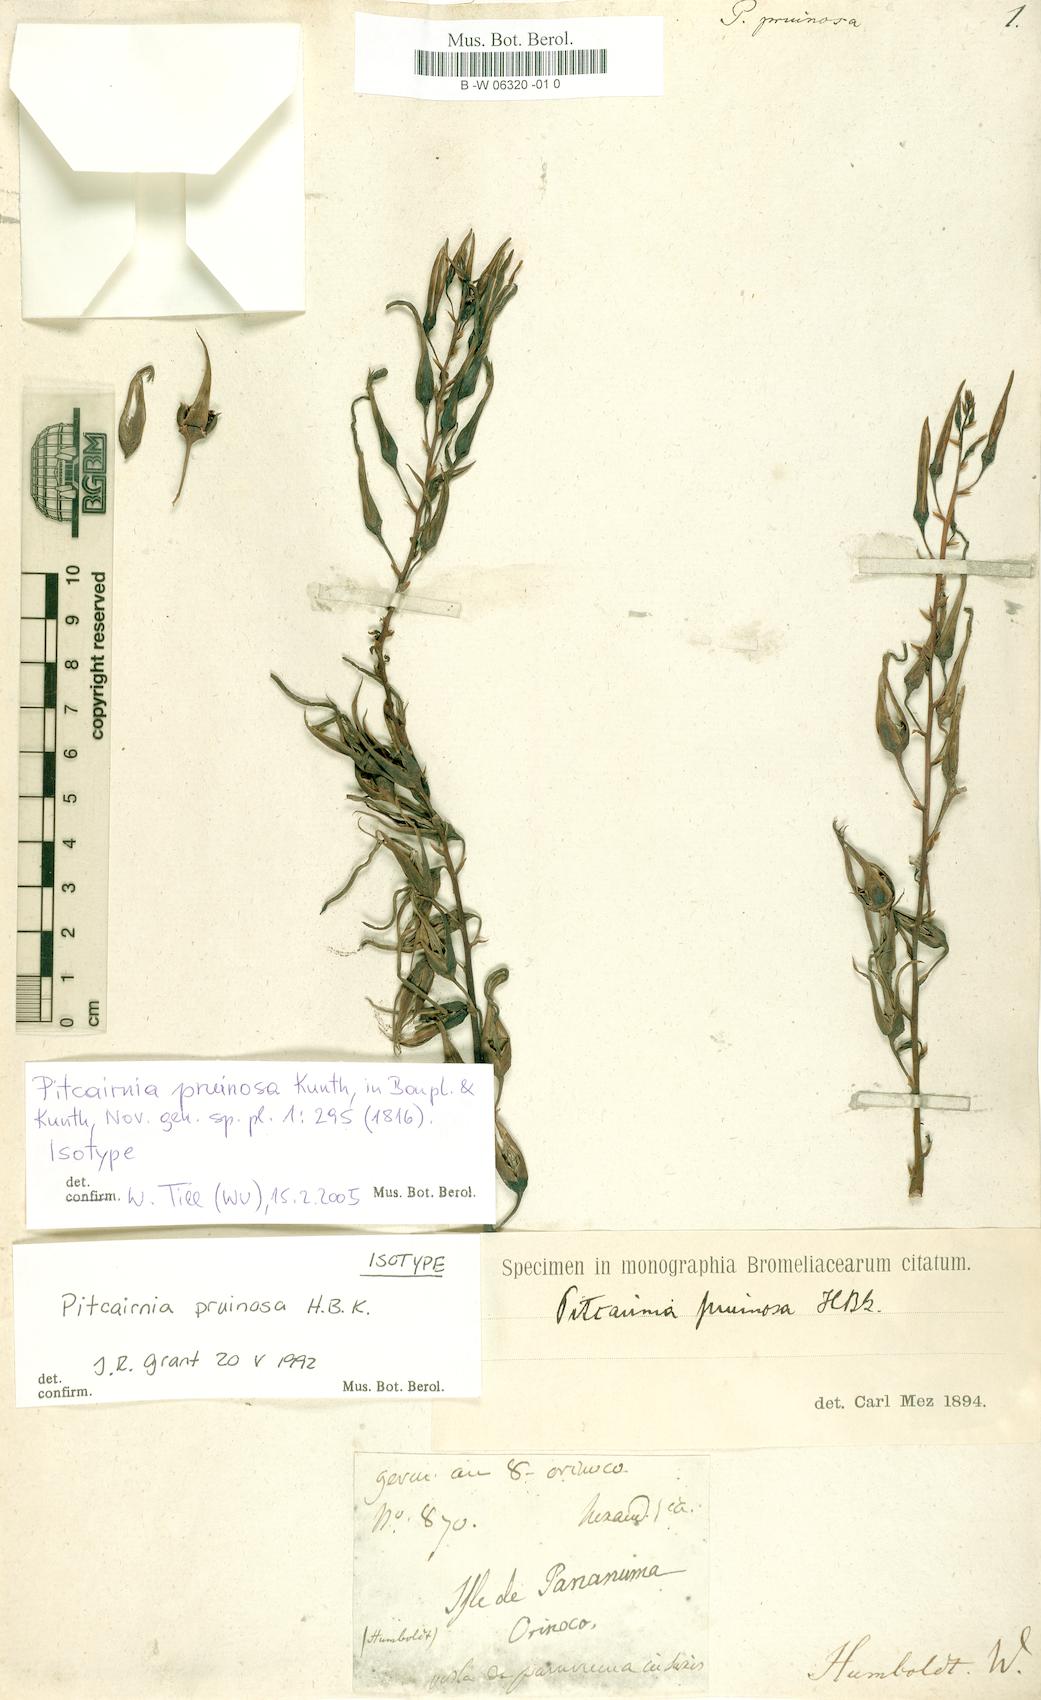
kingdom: Plantae
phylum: Tracheophyta
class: Liliopsida
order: Poales
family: Bromeliaceae
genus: Pitcairnia
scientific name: Pitcairnia pruinosa
